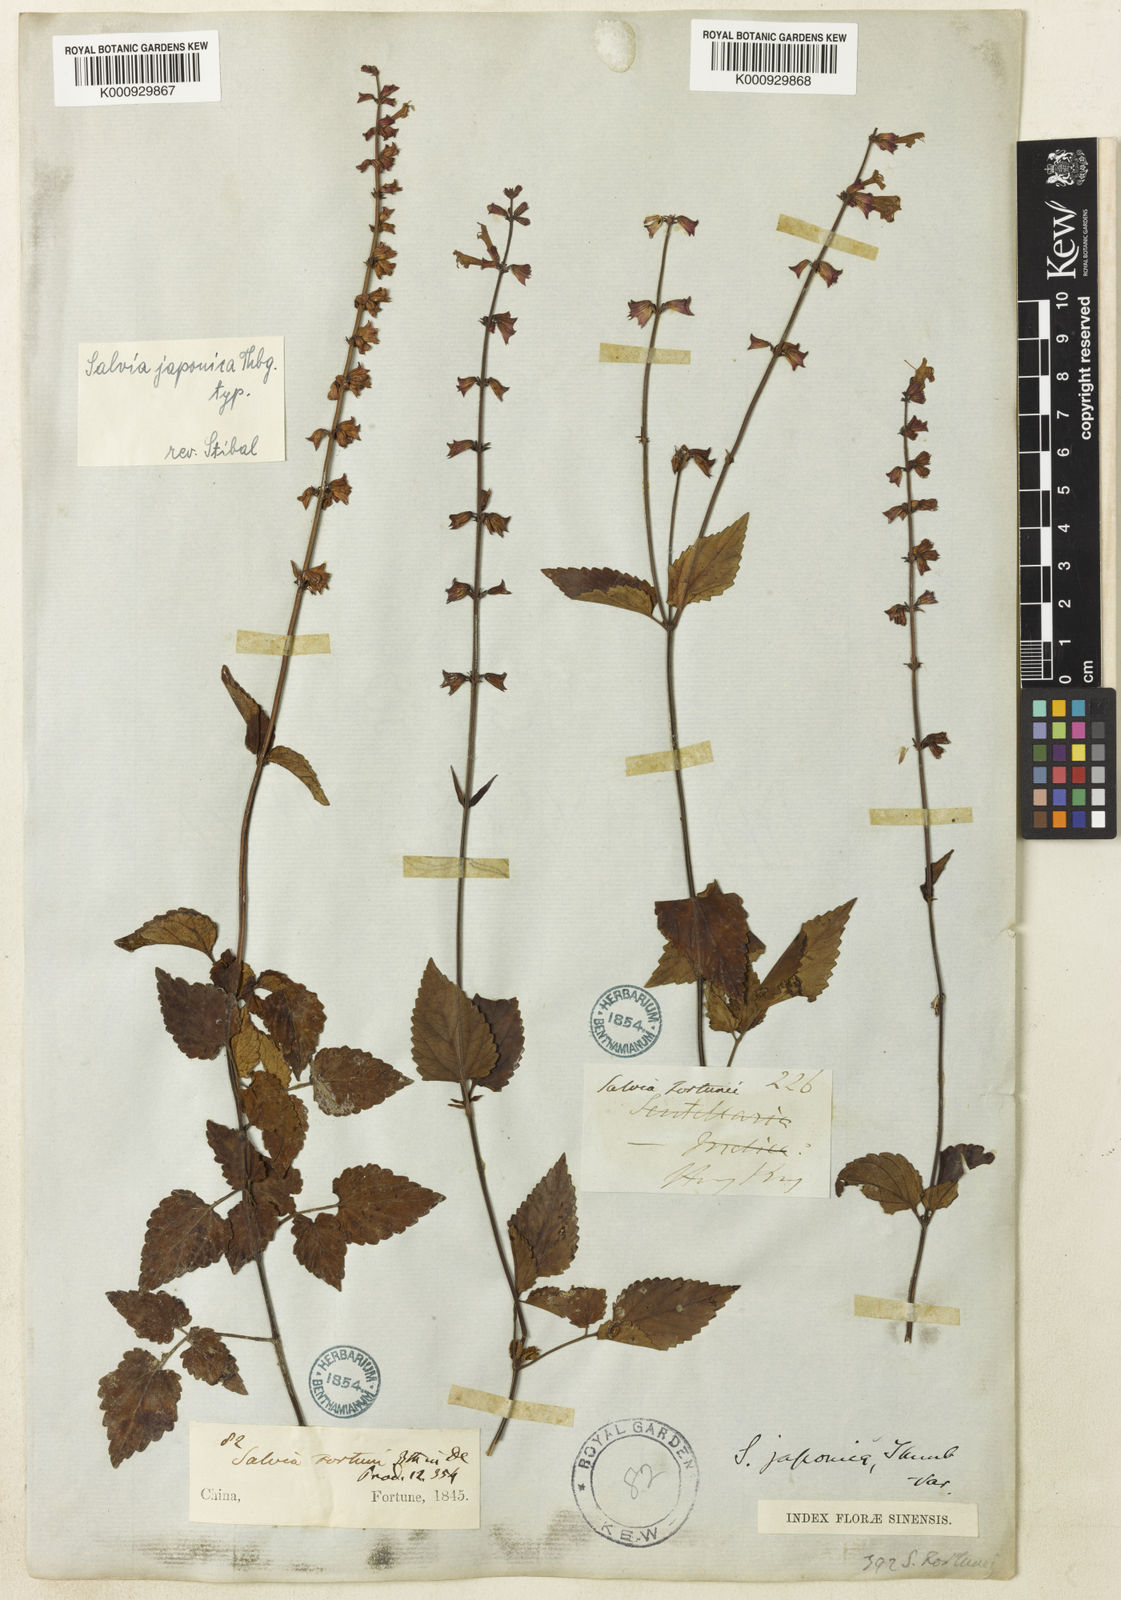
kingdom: Plantae
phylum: Tracheophyta
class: Magnoliopsida
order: Lamiales
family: Lamiaceae
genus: Salvia
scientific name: Salvia japonica
